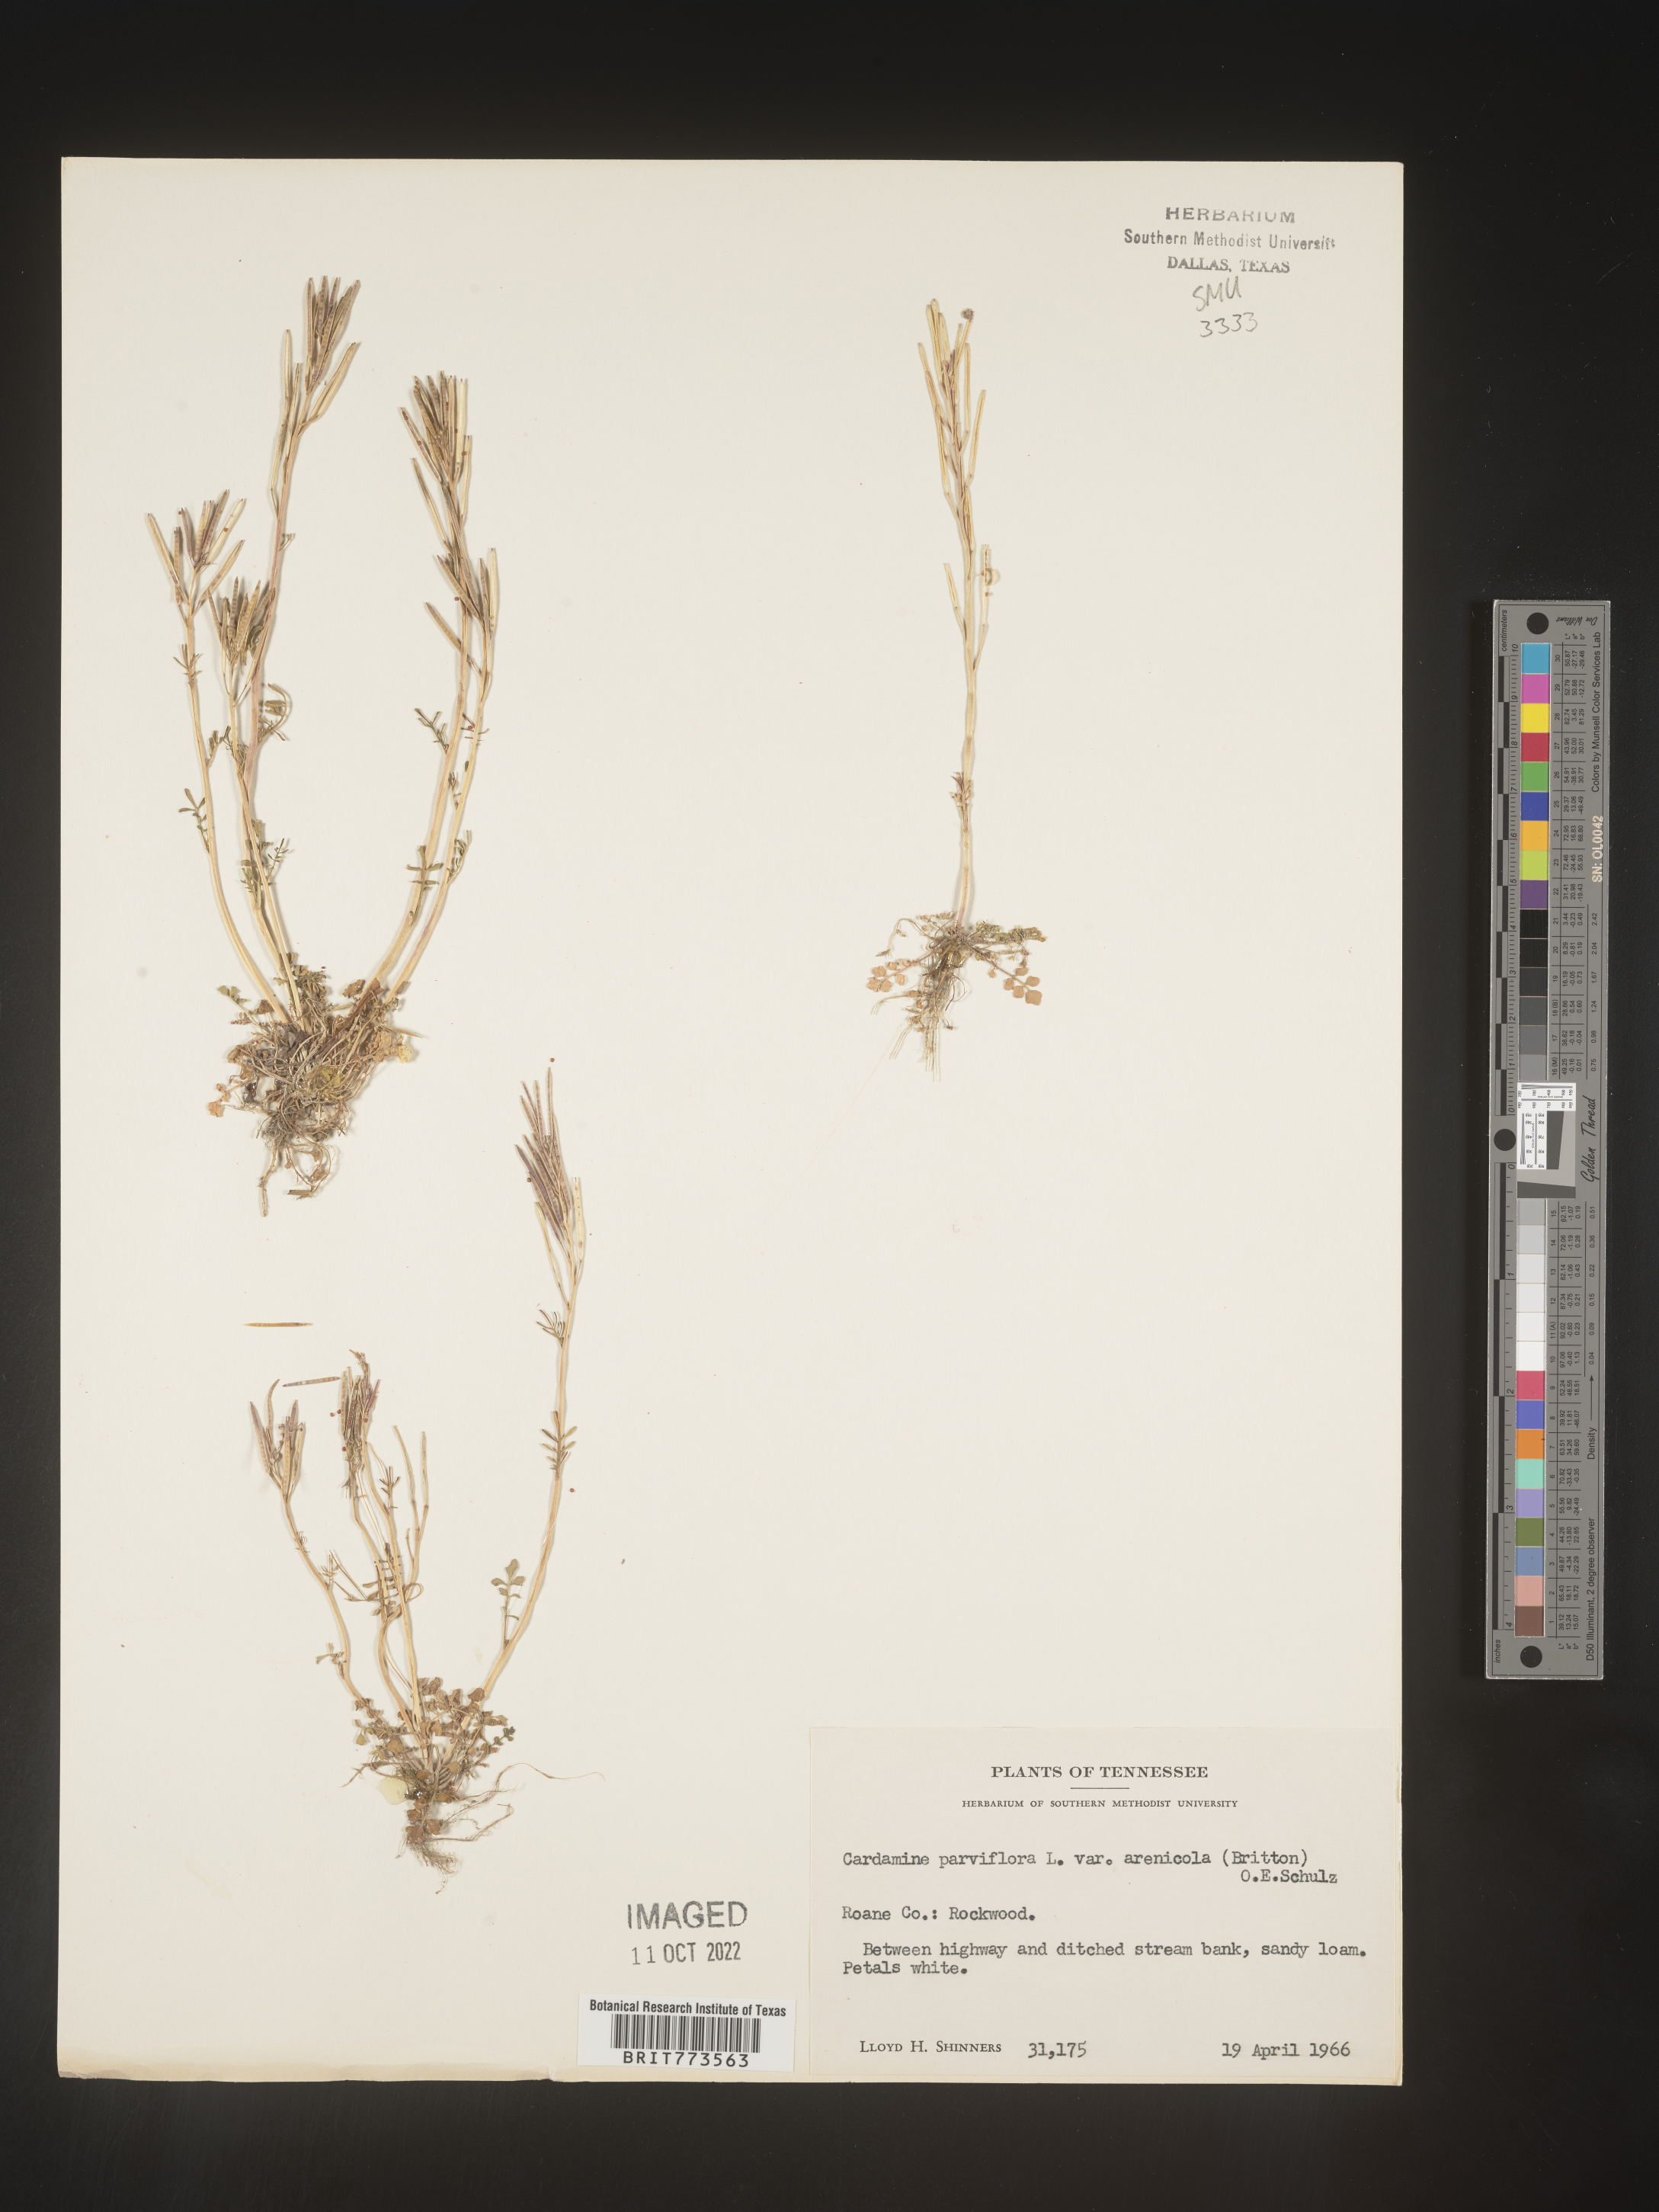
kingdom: Plantae
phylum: Tracheophyta
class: Magnoliopsida
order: Brassicales
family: Brassicaceae
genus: Cardamine
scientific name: Cardamine parviflora
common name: Sand bittercress
